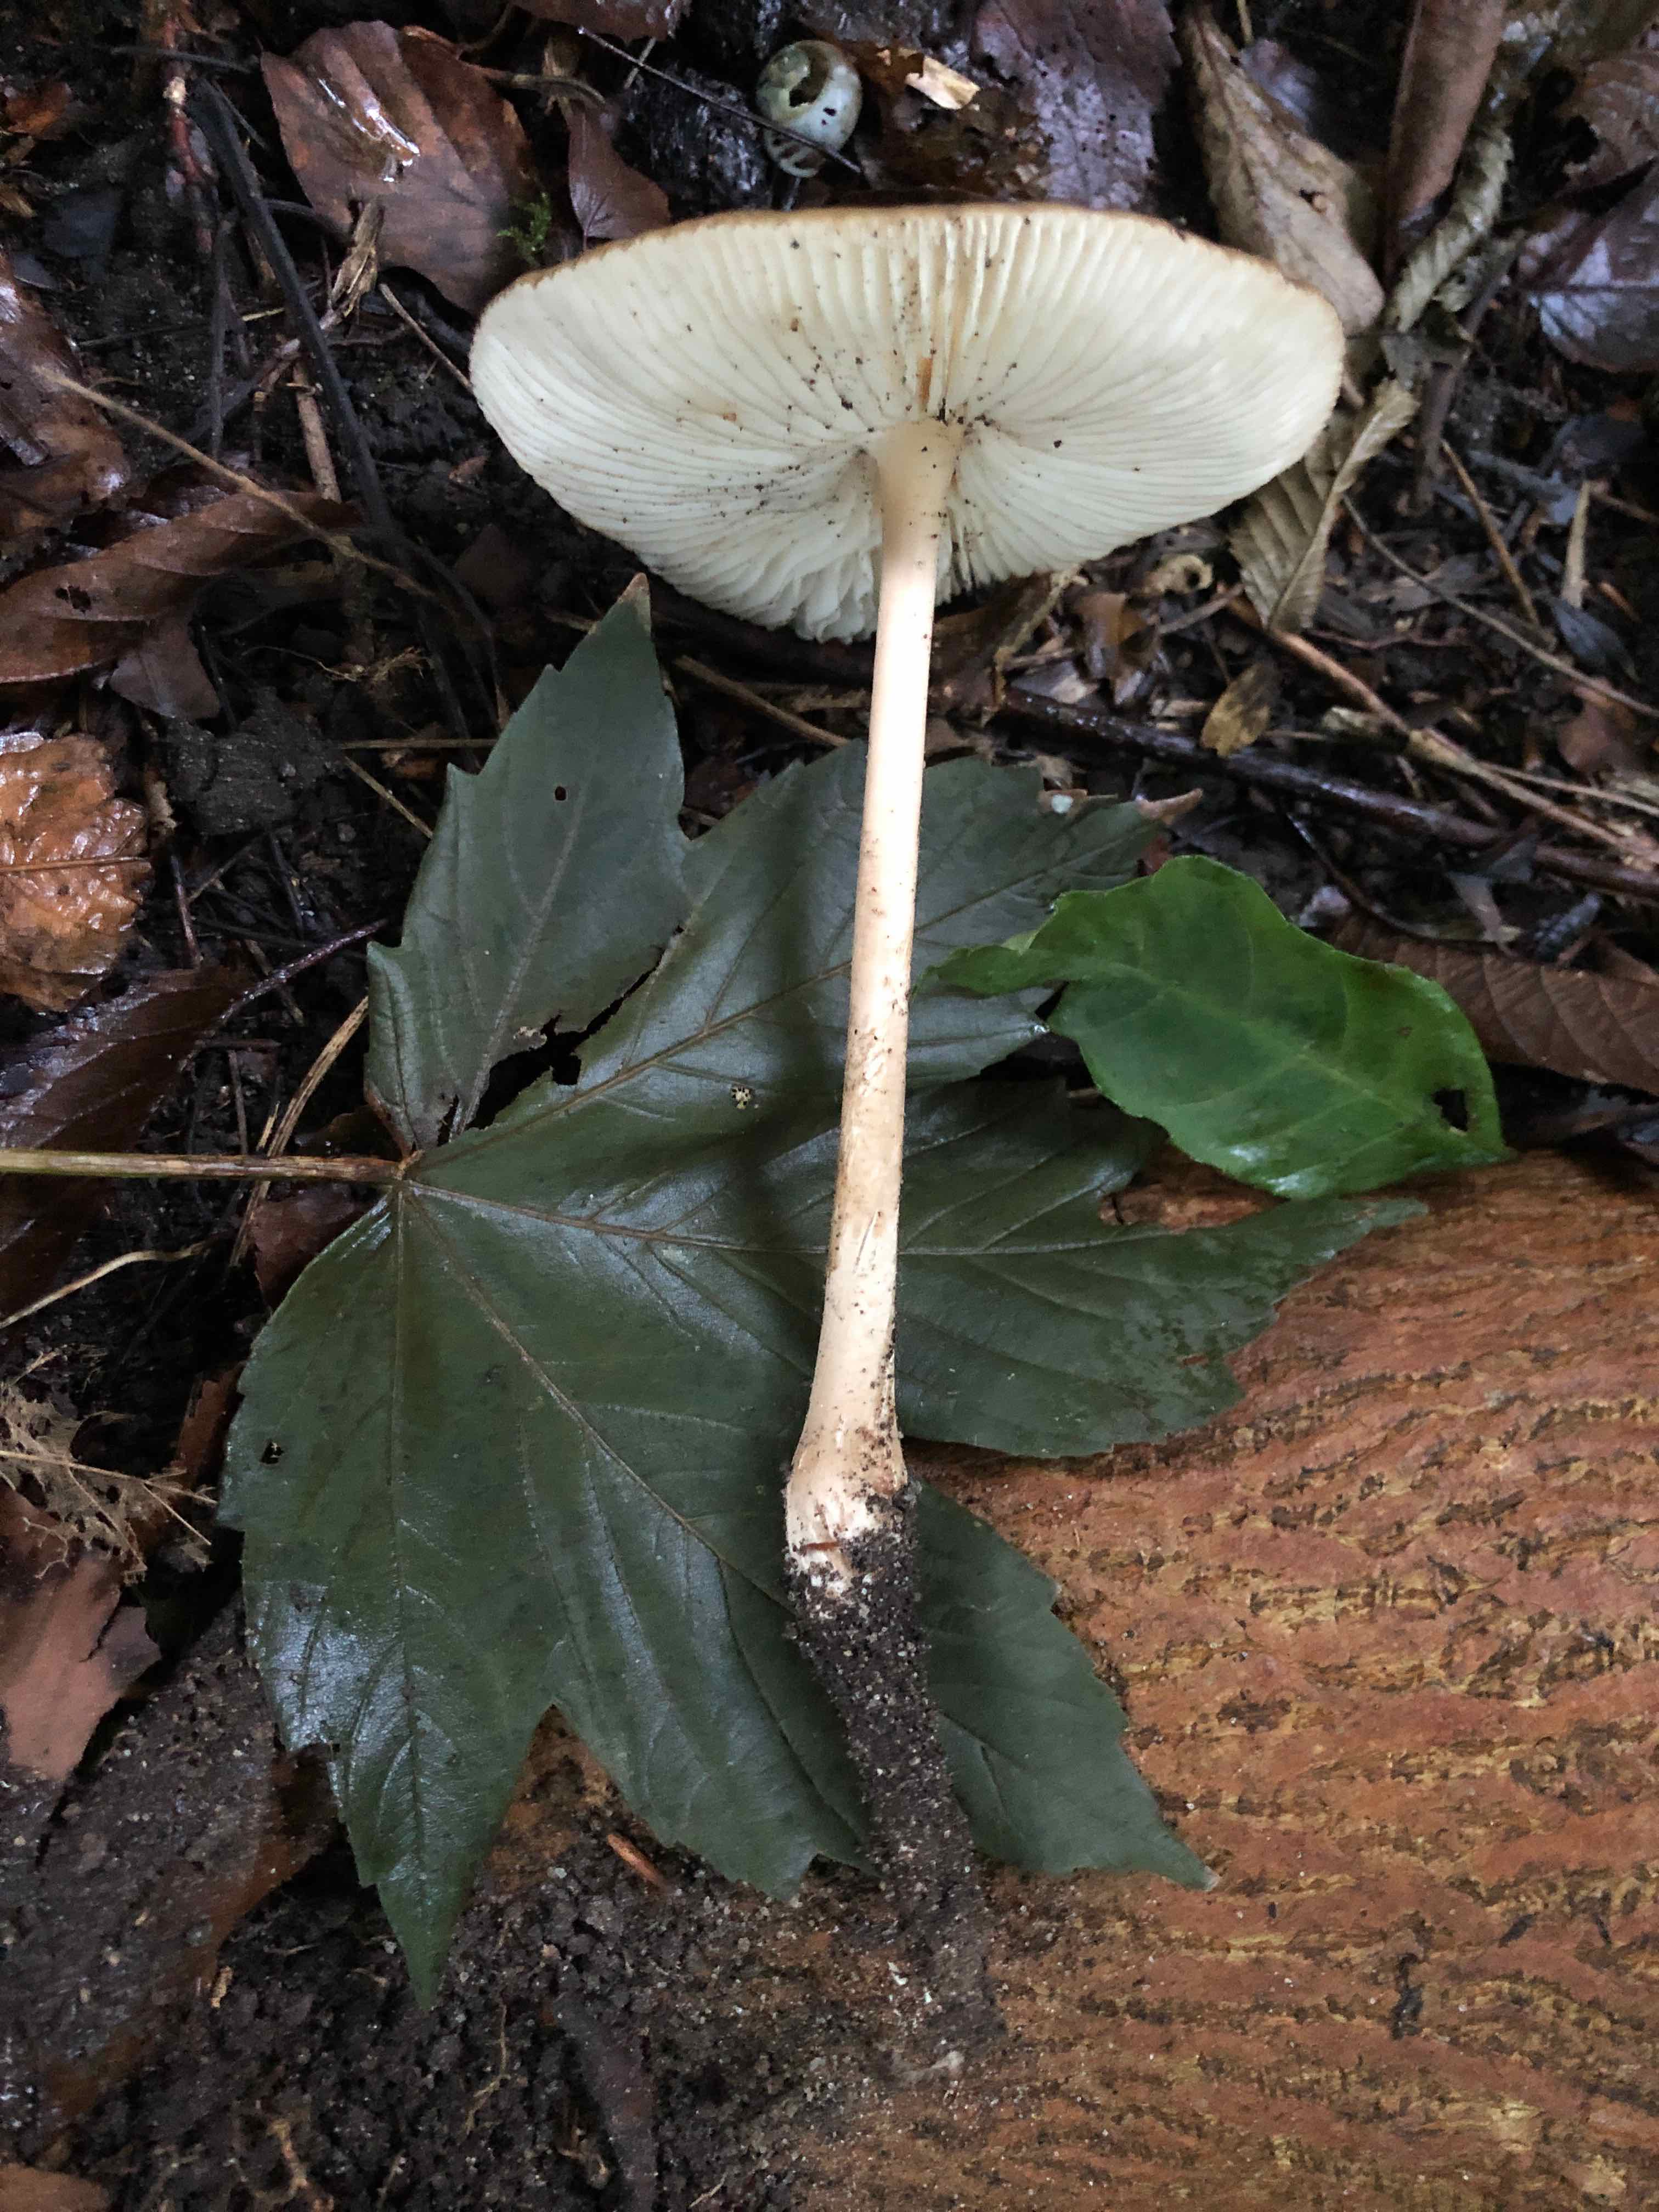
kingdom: Fungi
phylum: Basidiomycota
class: Agaricomycetes
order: Agaricales
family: Physalacriaceae
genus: Hymenopellis
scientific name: Hymenopellis radicata
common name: almindelig pælerodshat
